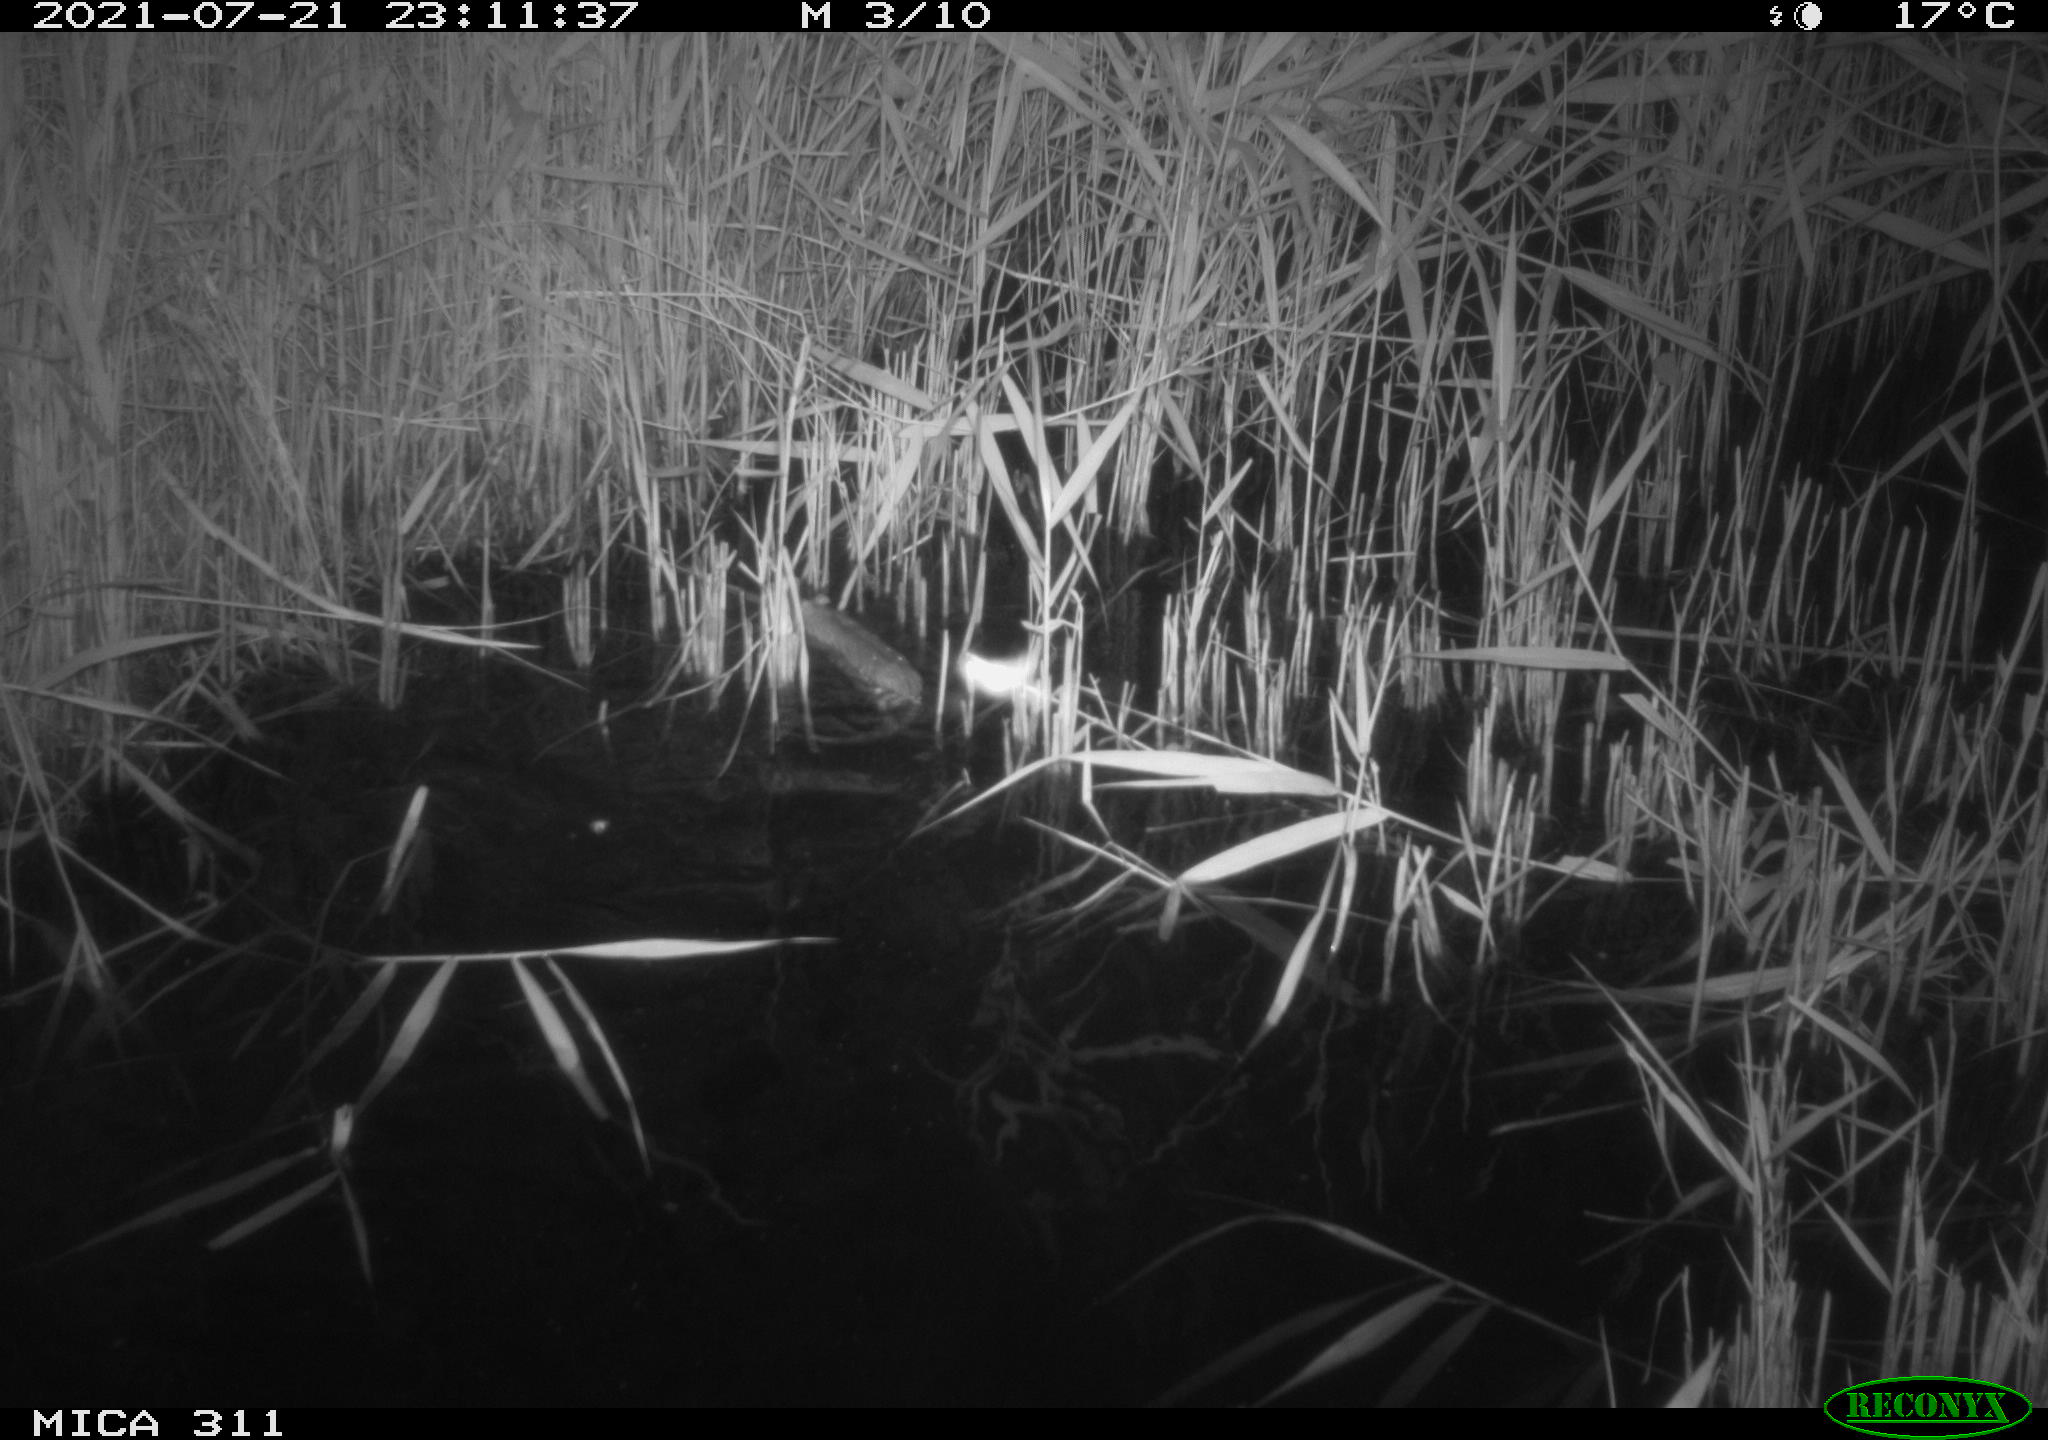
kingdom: Animalia
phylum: Chordata
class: Mammalia
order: Rodentia
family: Muridae
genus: Rattus
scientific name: Rattus norvegicus
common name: Brown rat
